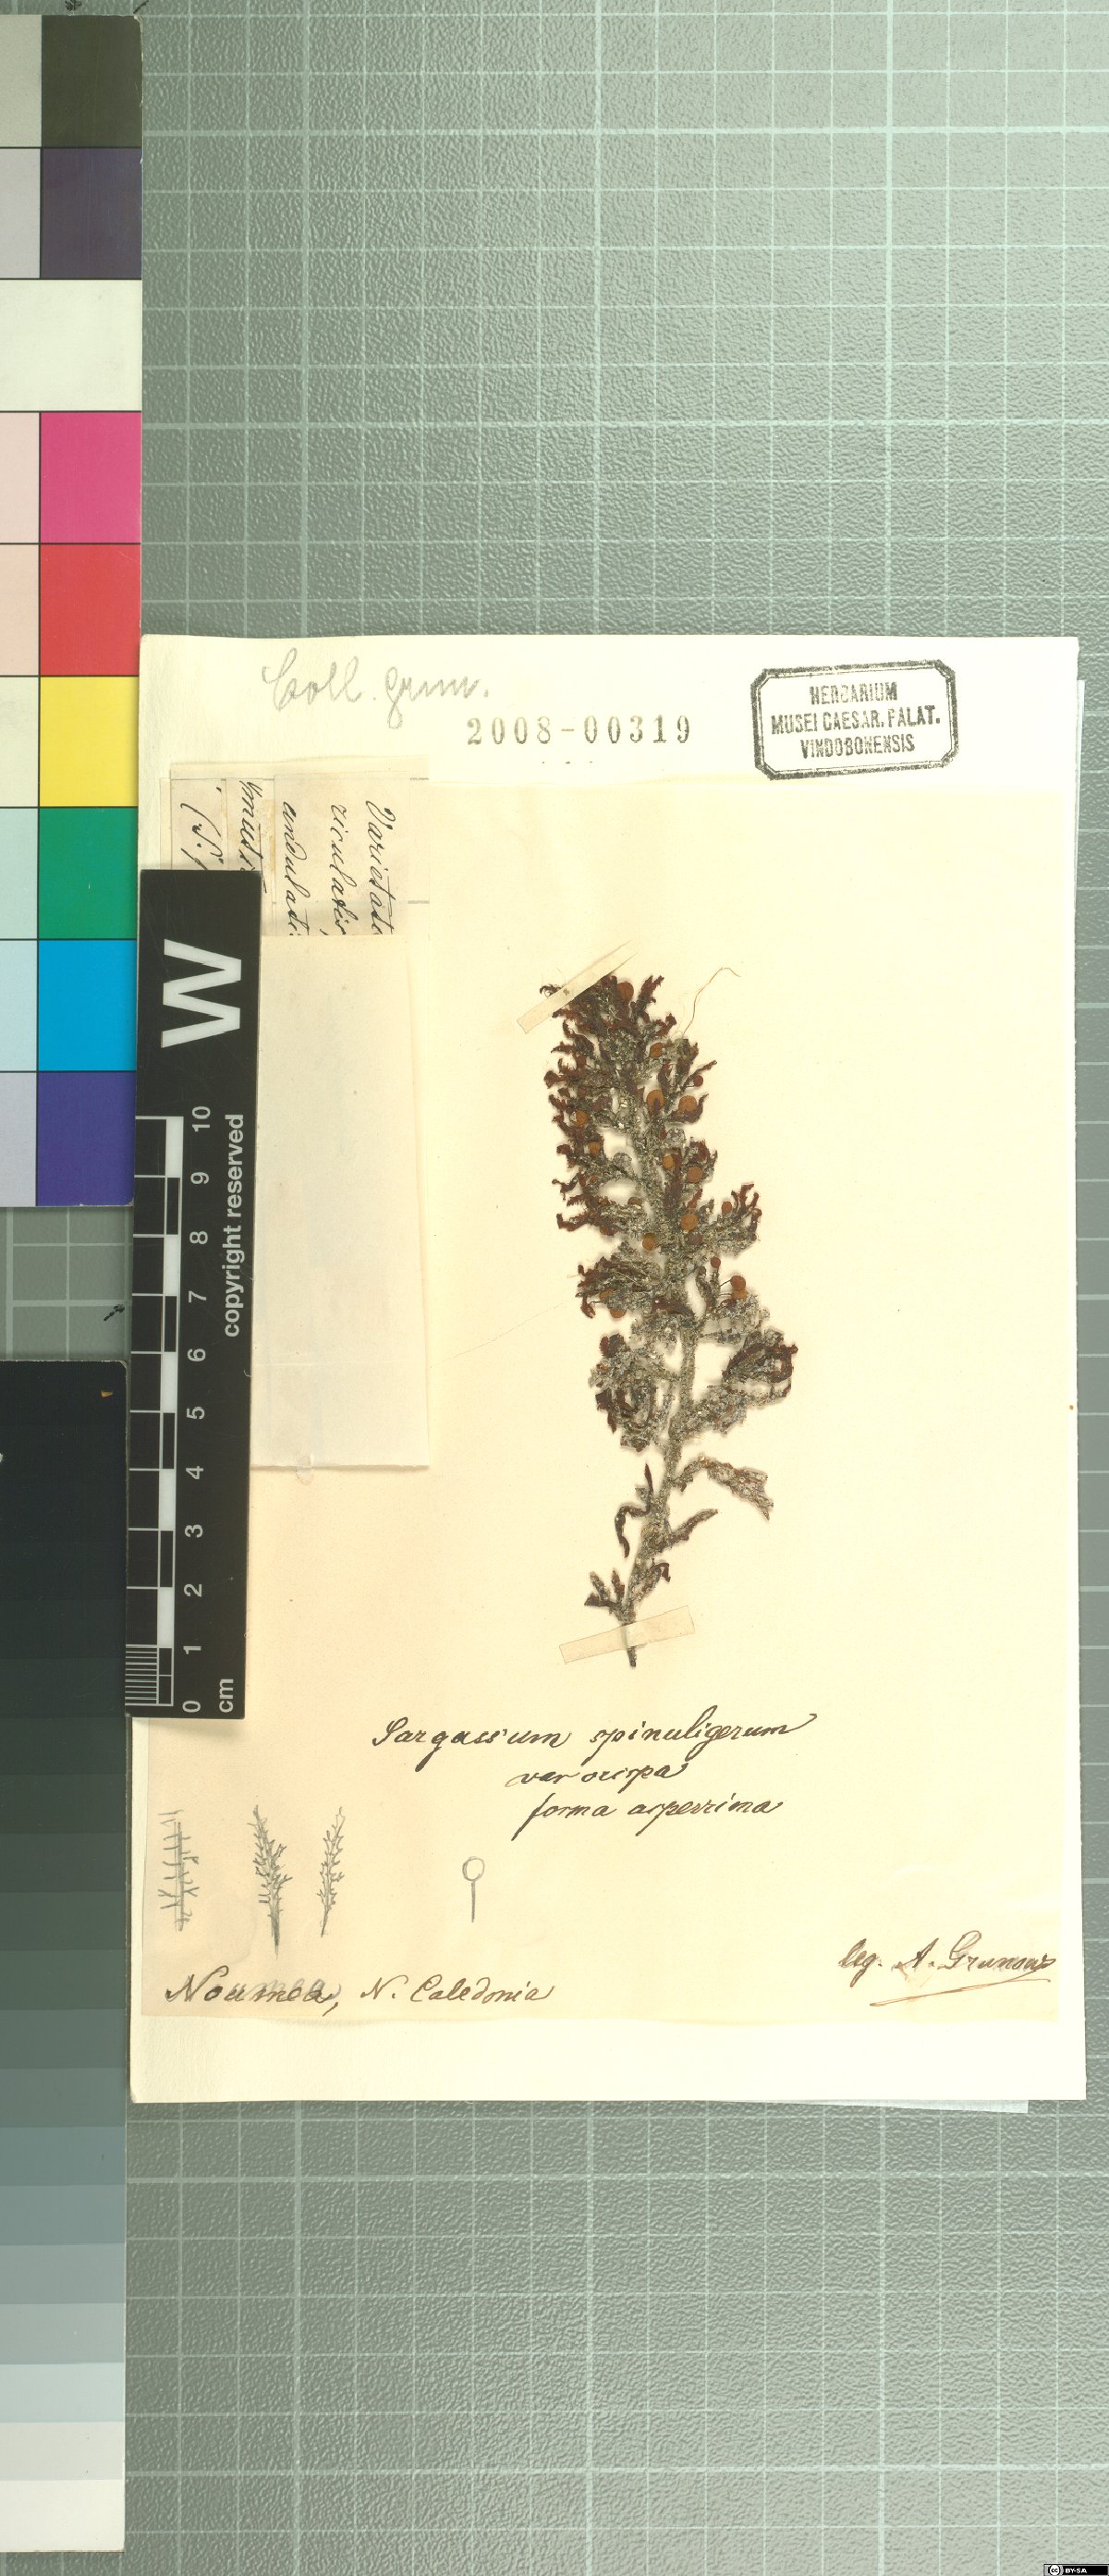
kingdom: Chromista
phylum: Ochrophyta
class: Phaeophyceae
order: Fucales
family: Sargassaceae
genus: Sargassum
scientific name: Sargassum
